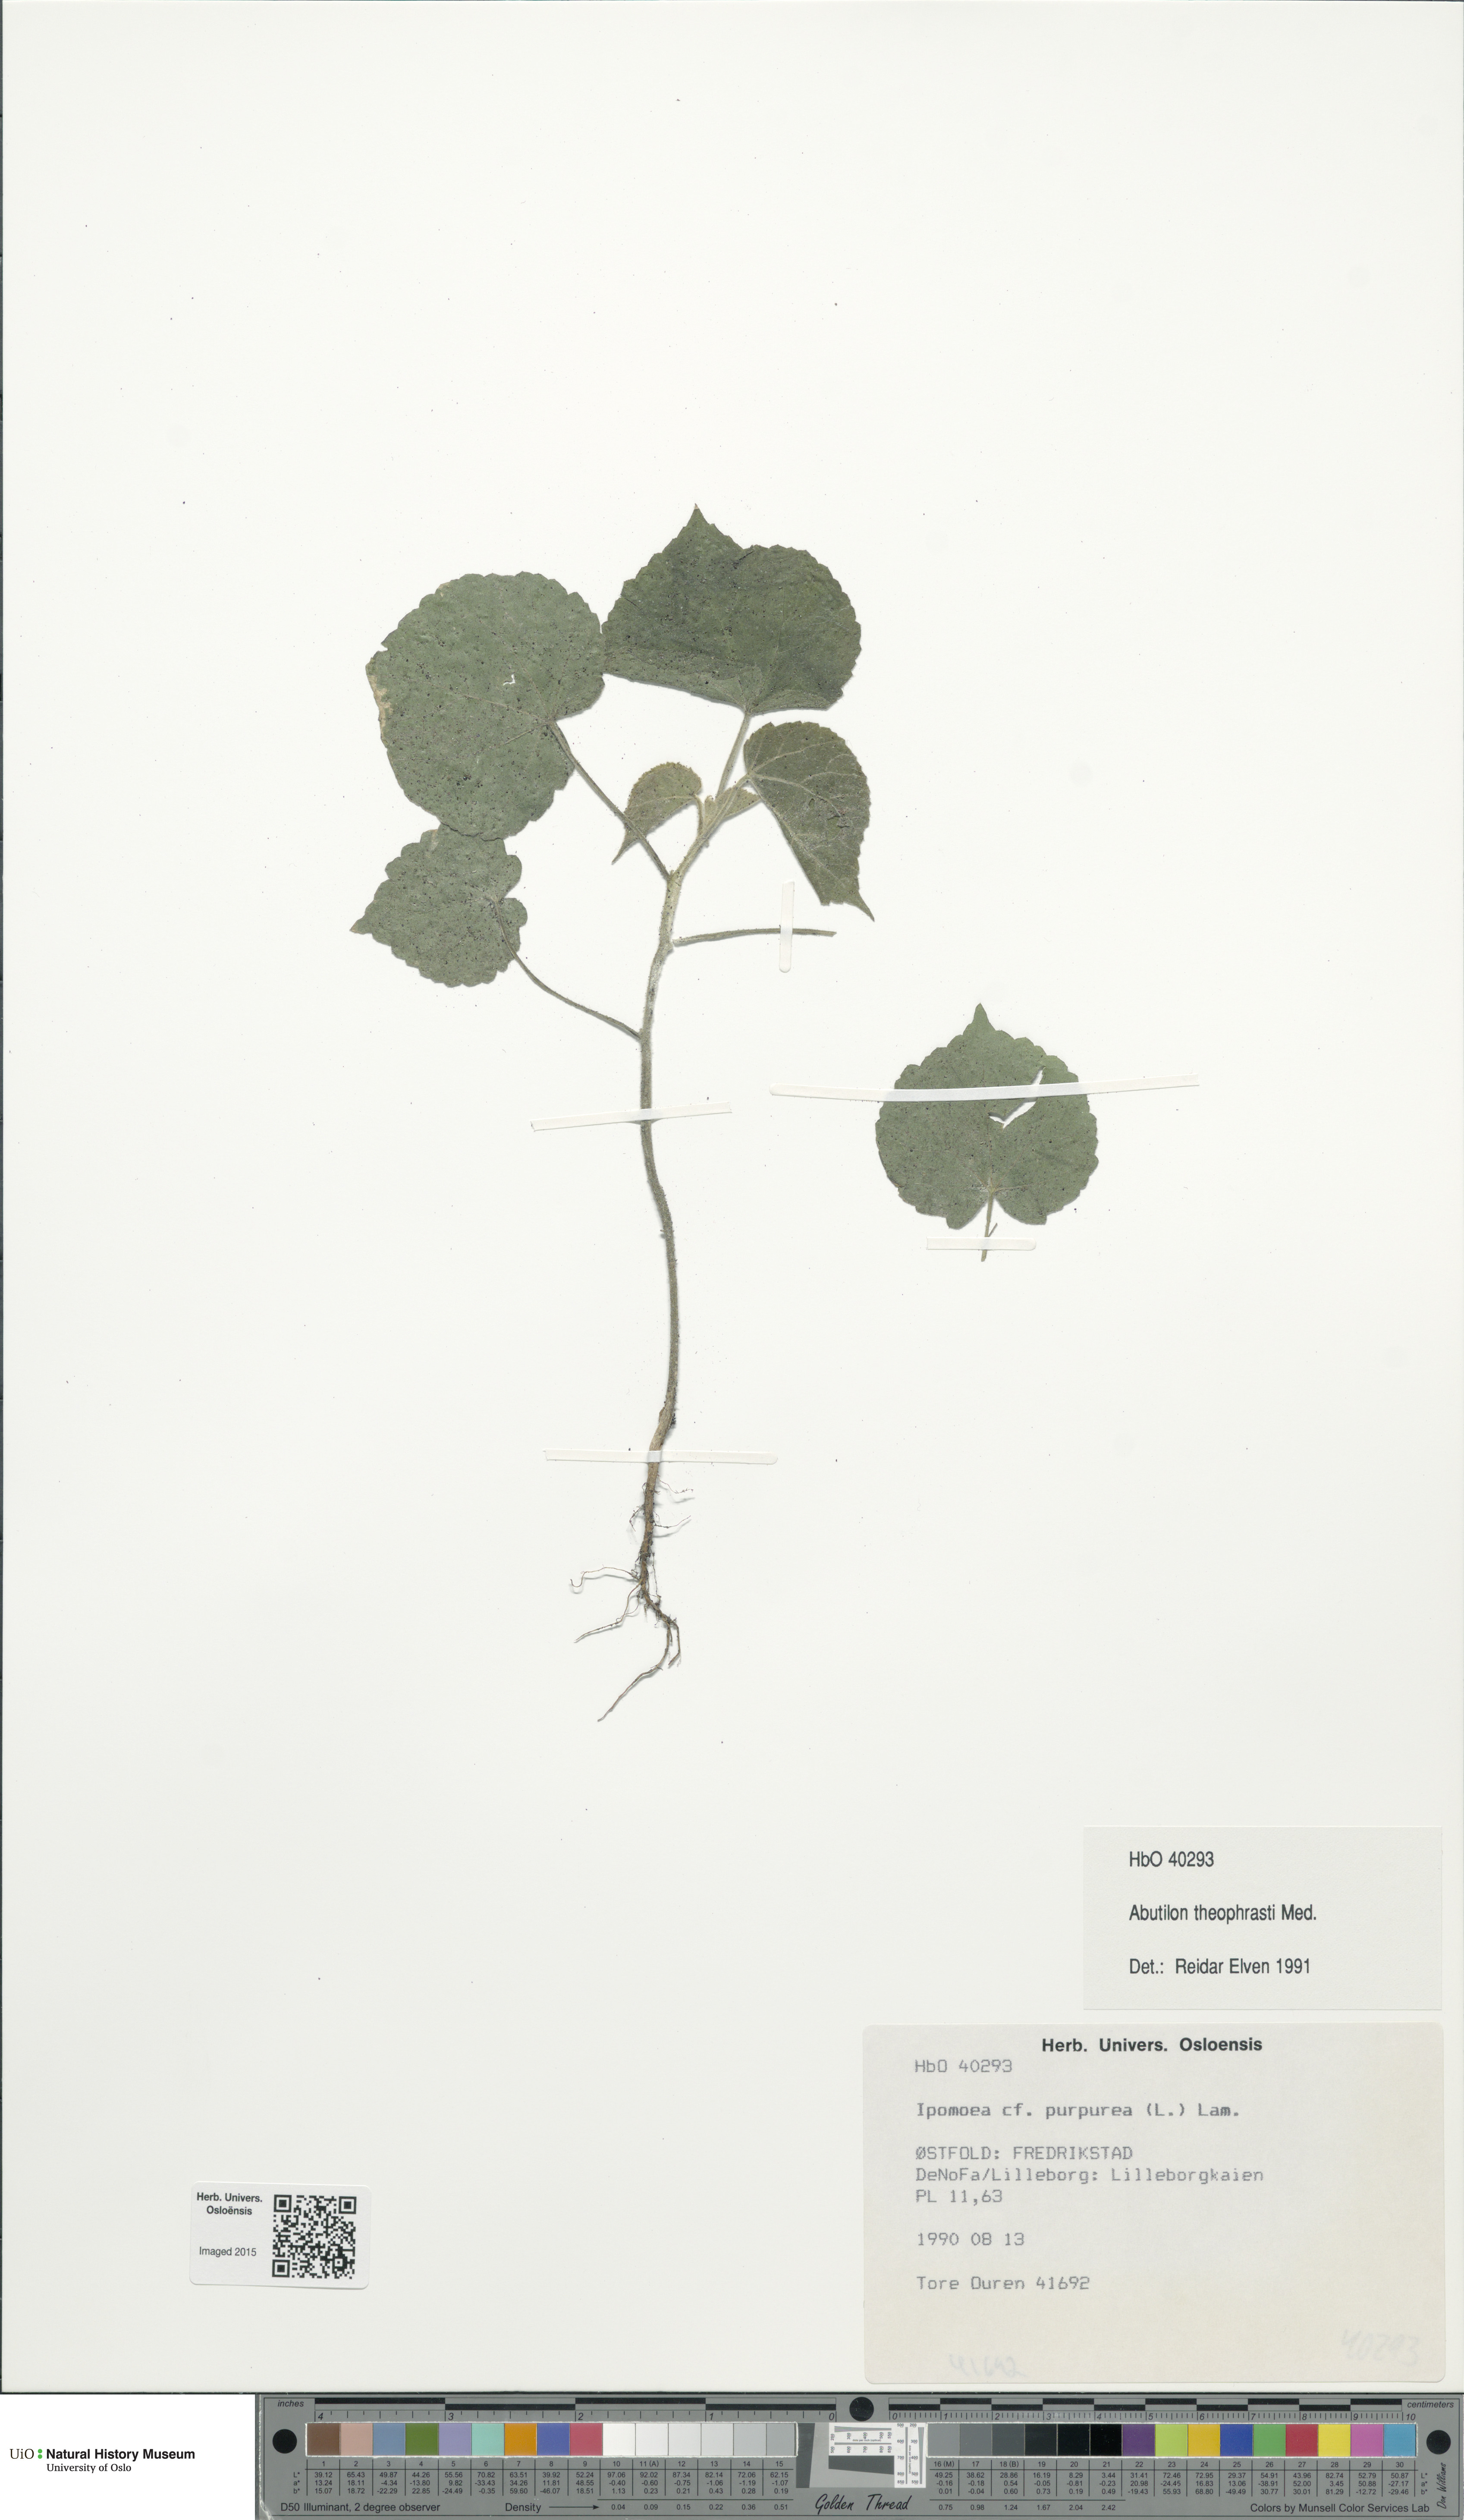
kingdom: Plantae
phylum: Tracheophyta
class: Magnoliopsida
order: Malvales
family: Malvaceae
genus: Abutilon
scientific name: Abutilon theophrasti
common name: Velvetleaf
